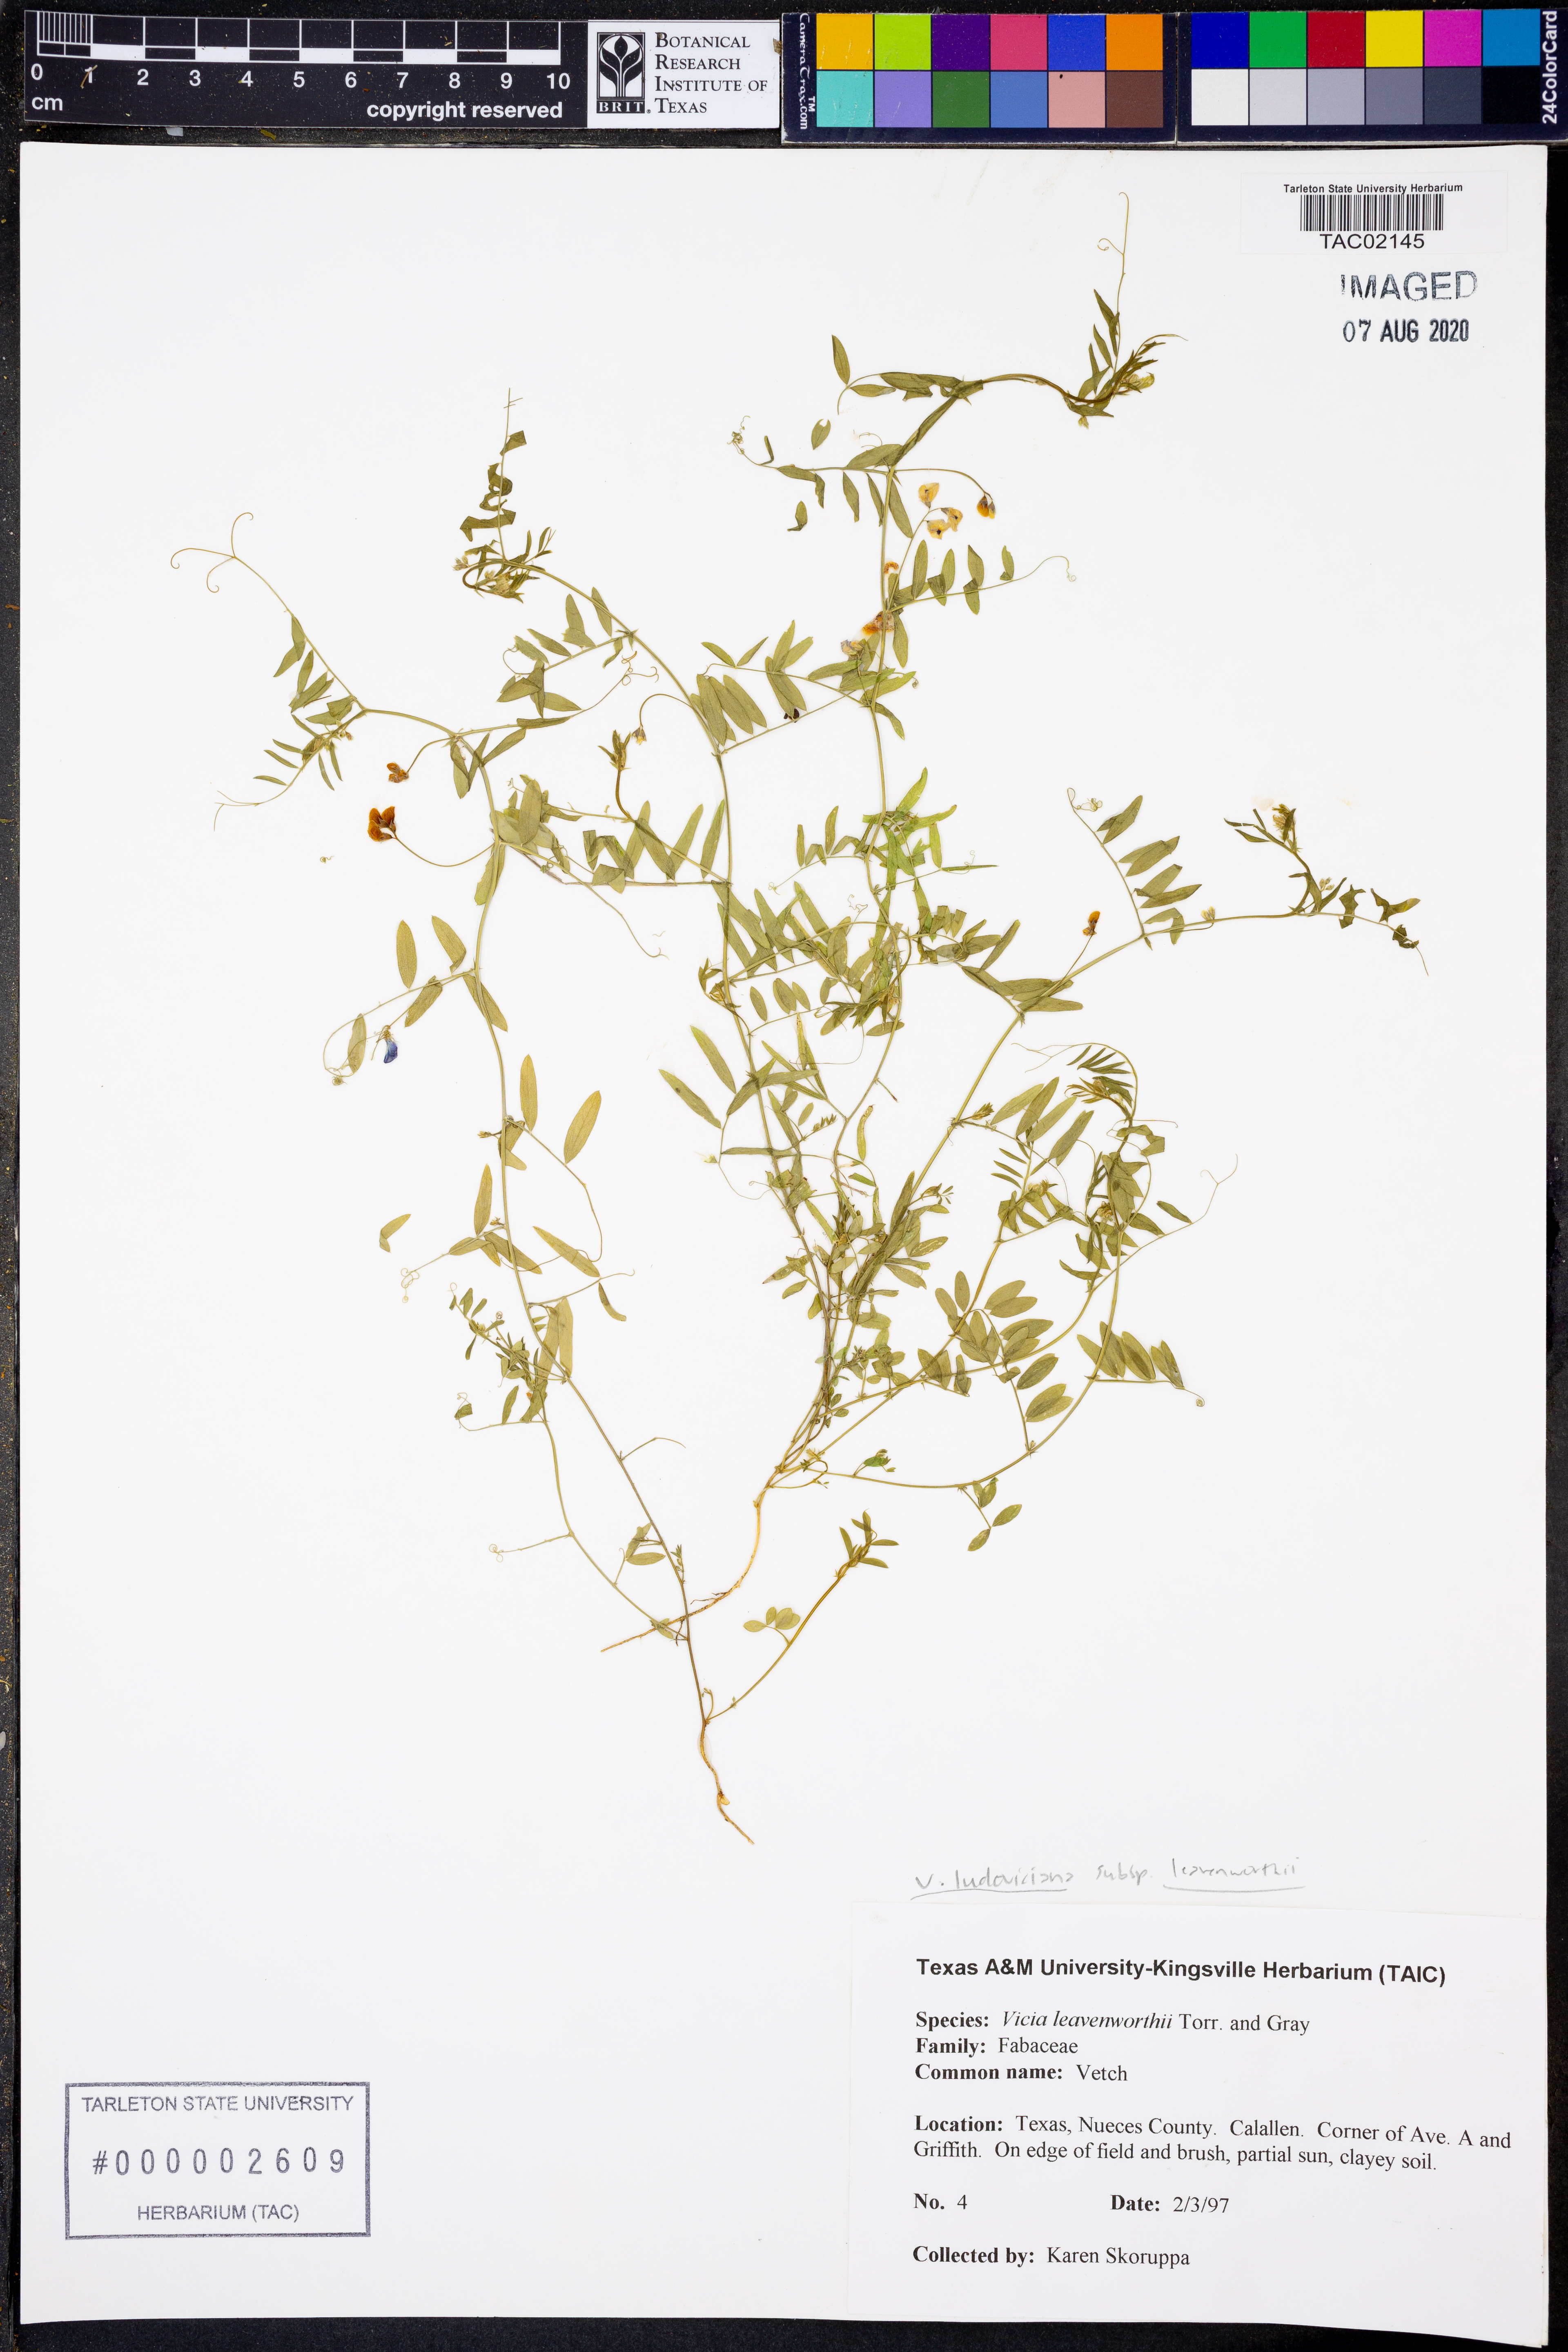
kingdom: Plantae
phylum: Tracheophyta
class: Magnoliopsida
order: Fabales
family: Fabaceae
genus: Vicia
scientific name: Vicia ludoviciana
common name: Louisiana vetch
